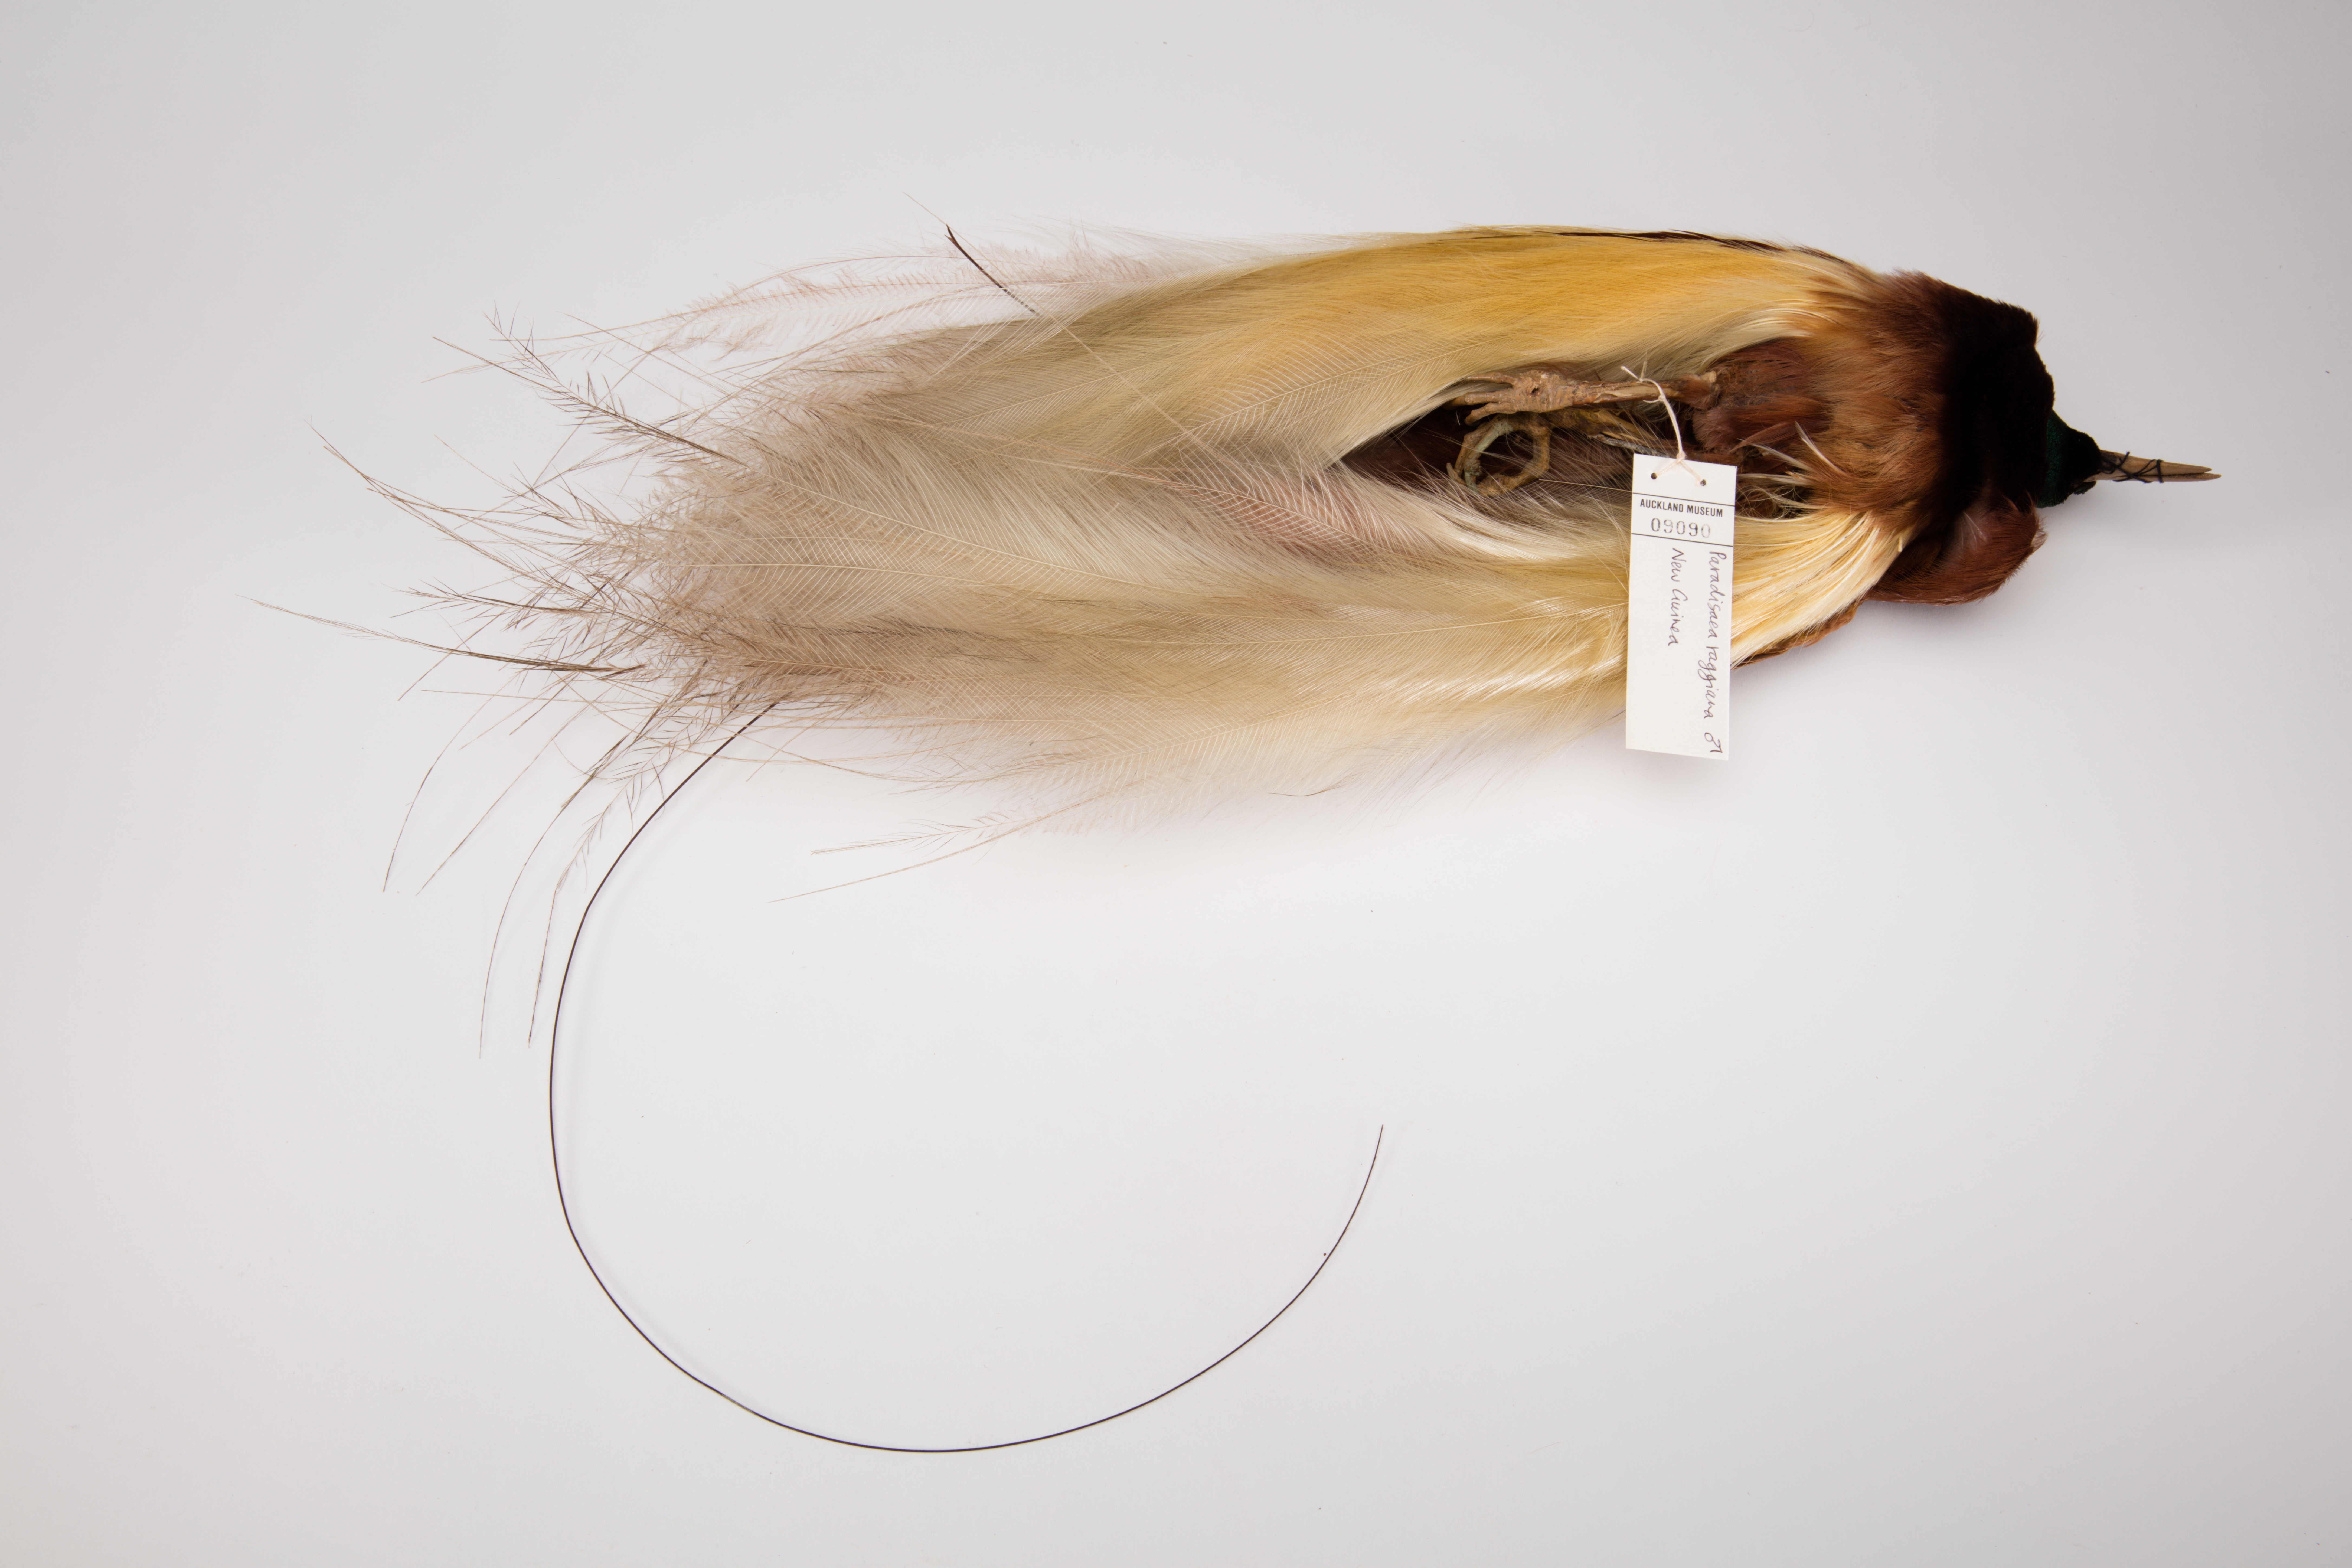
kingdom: Animalia
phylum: Chordata
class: Aves
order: Passeriformes
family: Paradisaeidae
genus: Paradisaea
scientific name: Paradisaea raggiana
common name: Raggiana bird-of-paradise
